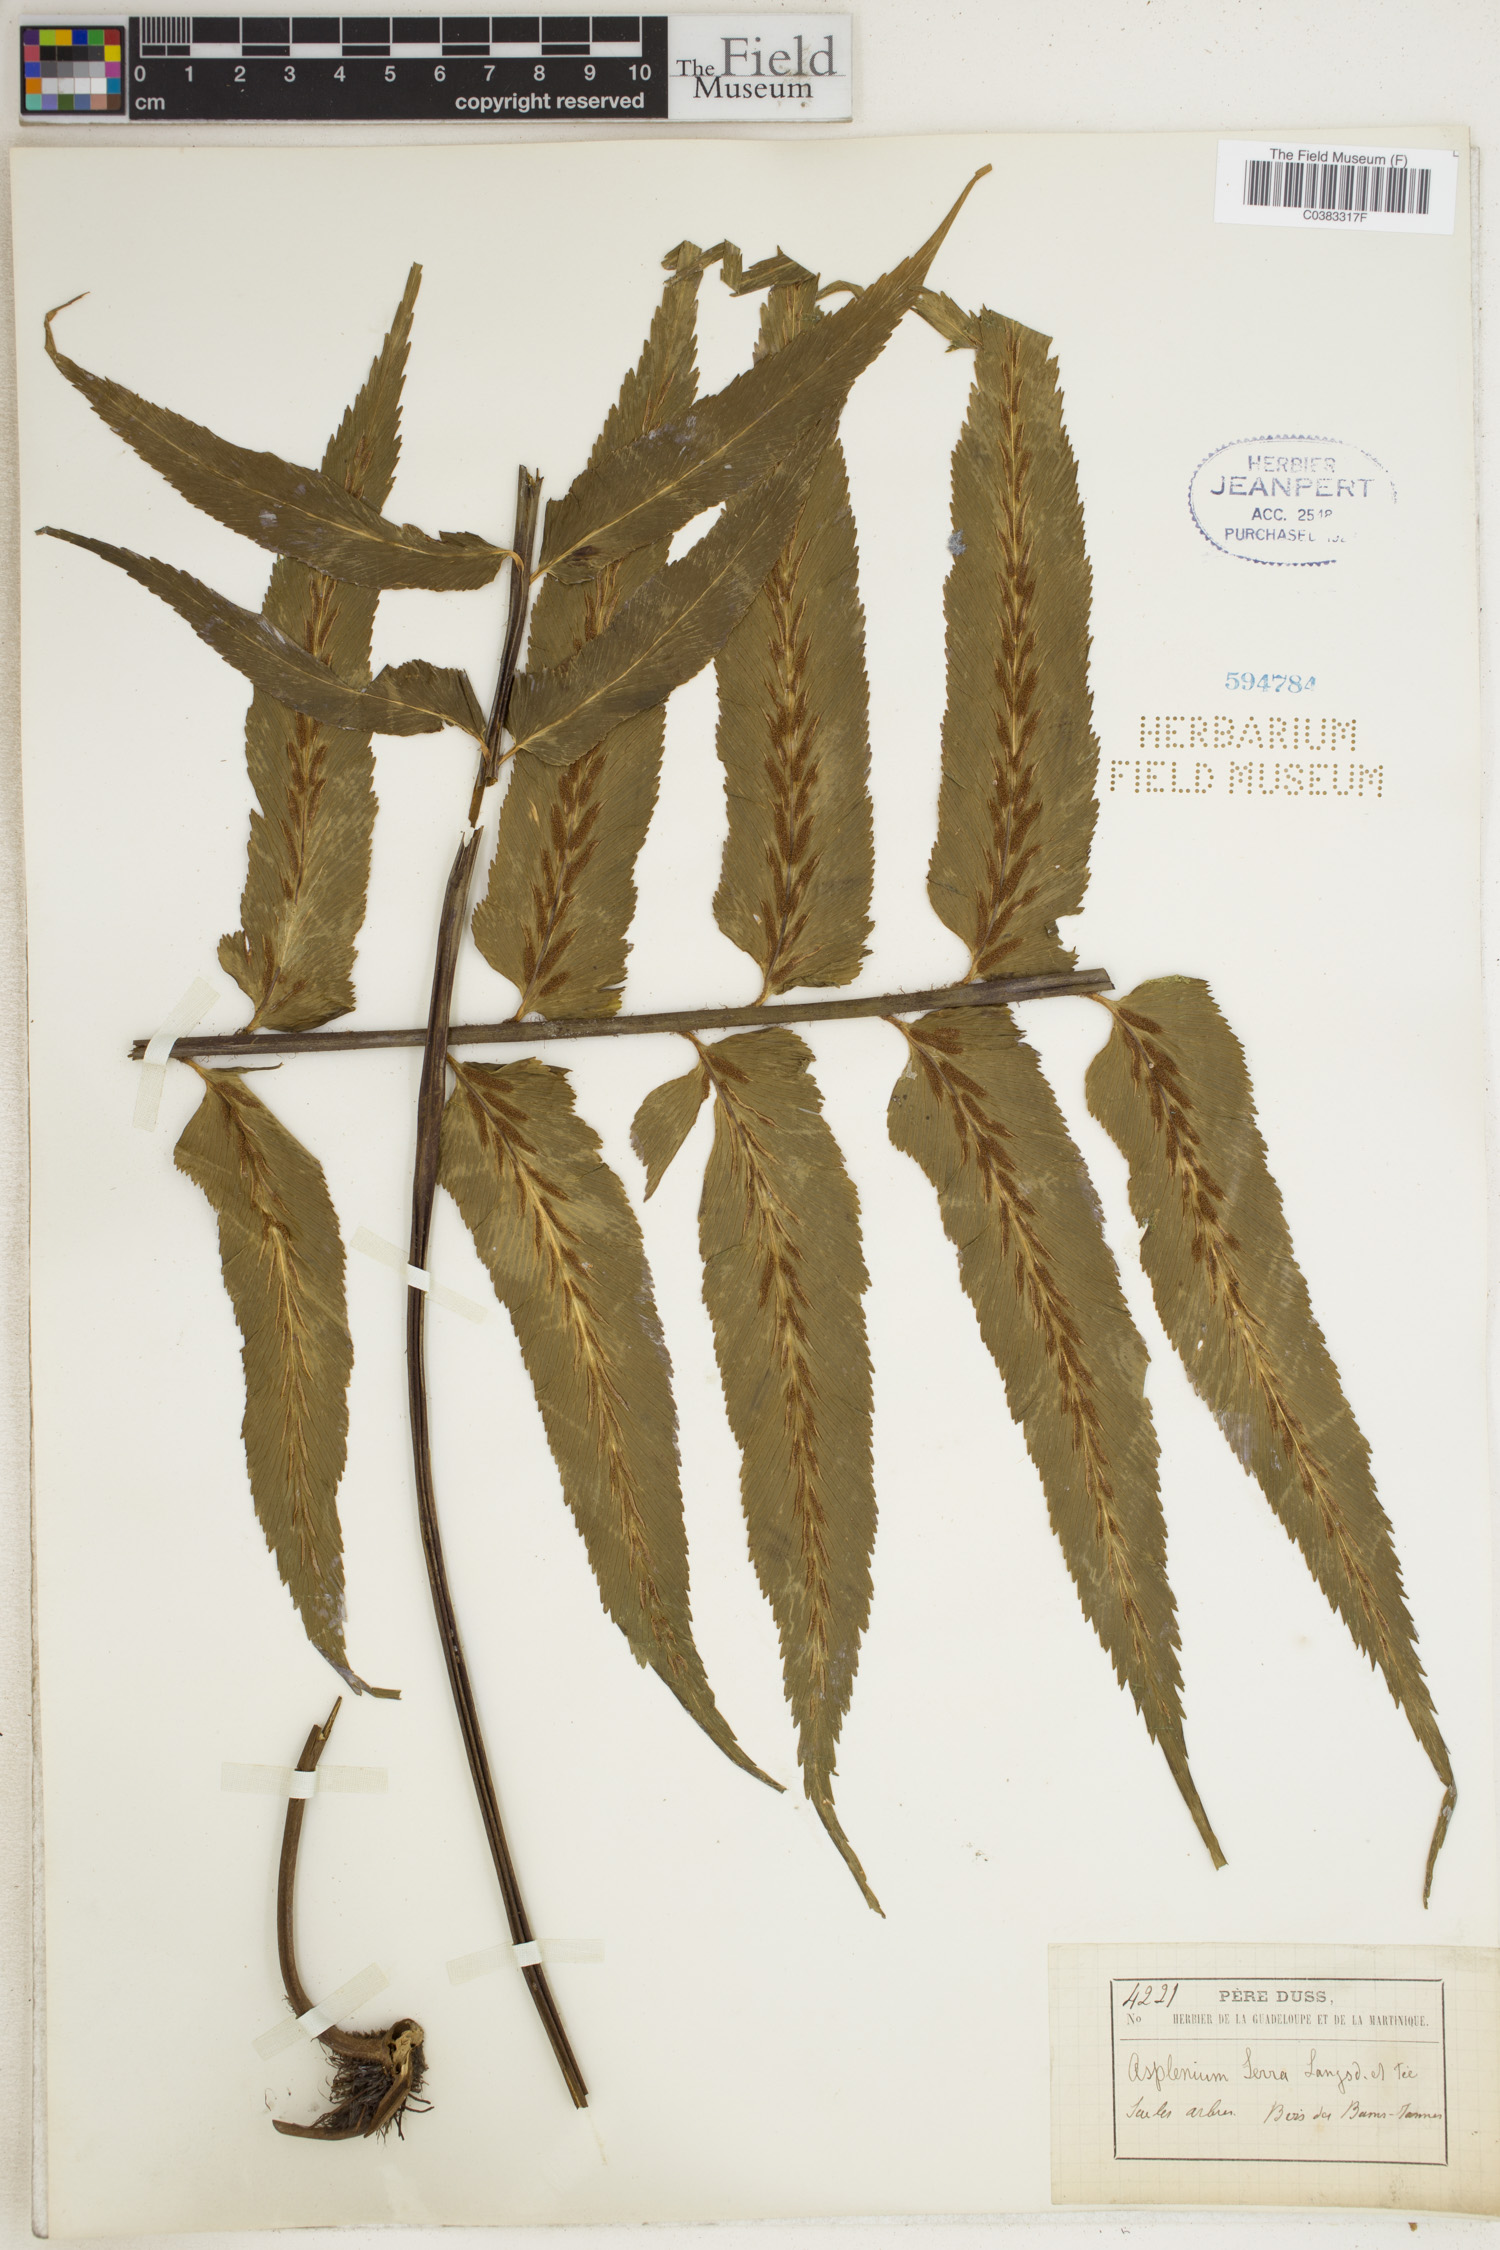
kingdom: Plantae
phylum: Tracheophyta
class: Polypodiopsida
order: Polypodiales
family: Aspleniaceae
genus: Asplenium
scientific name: Asplenium serra
